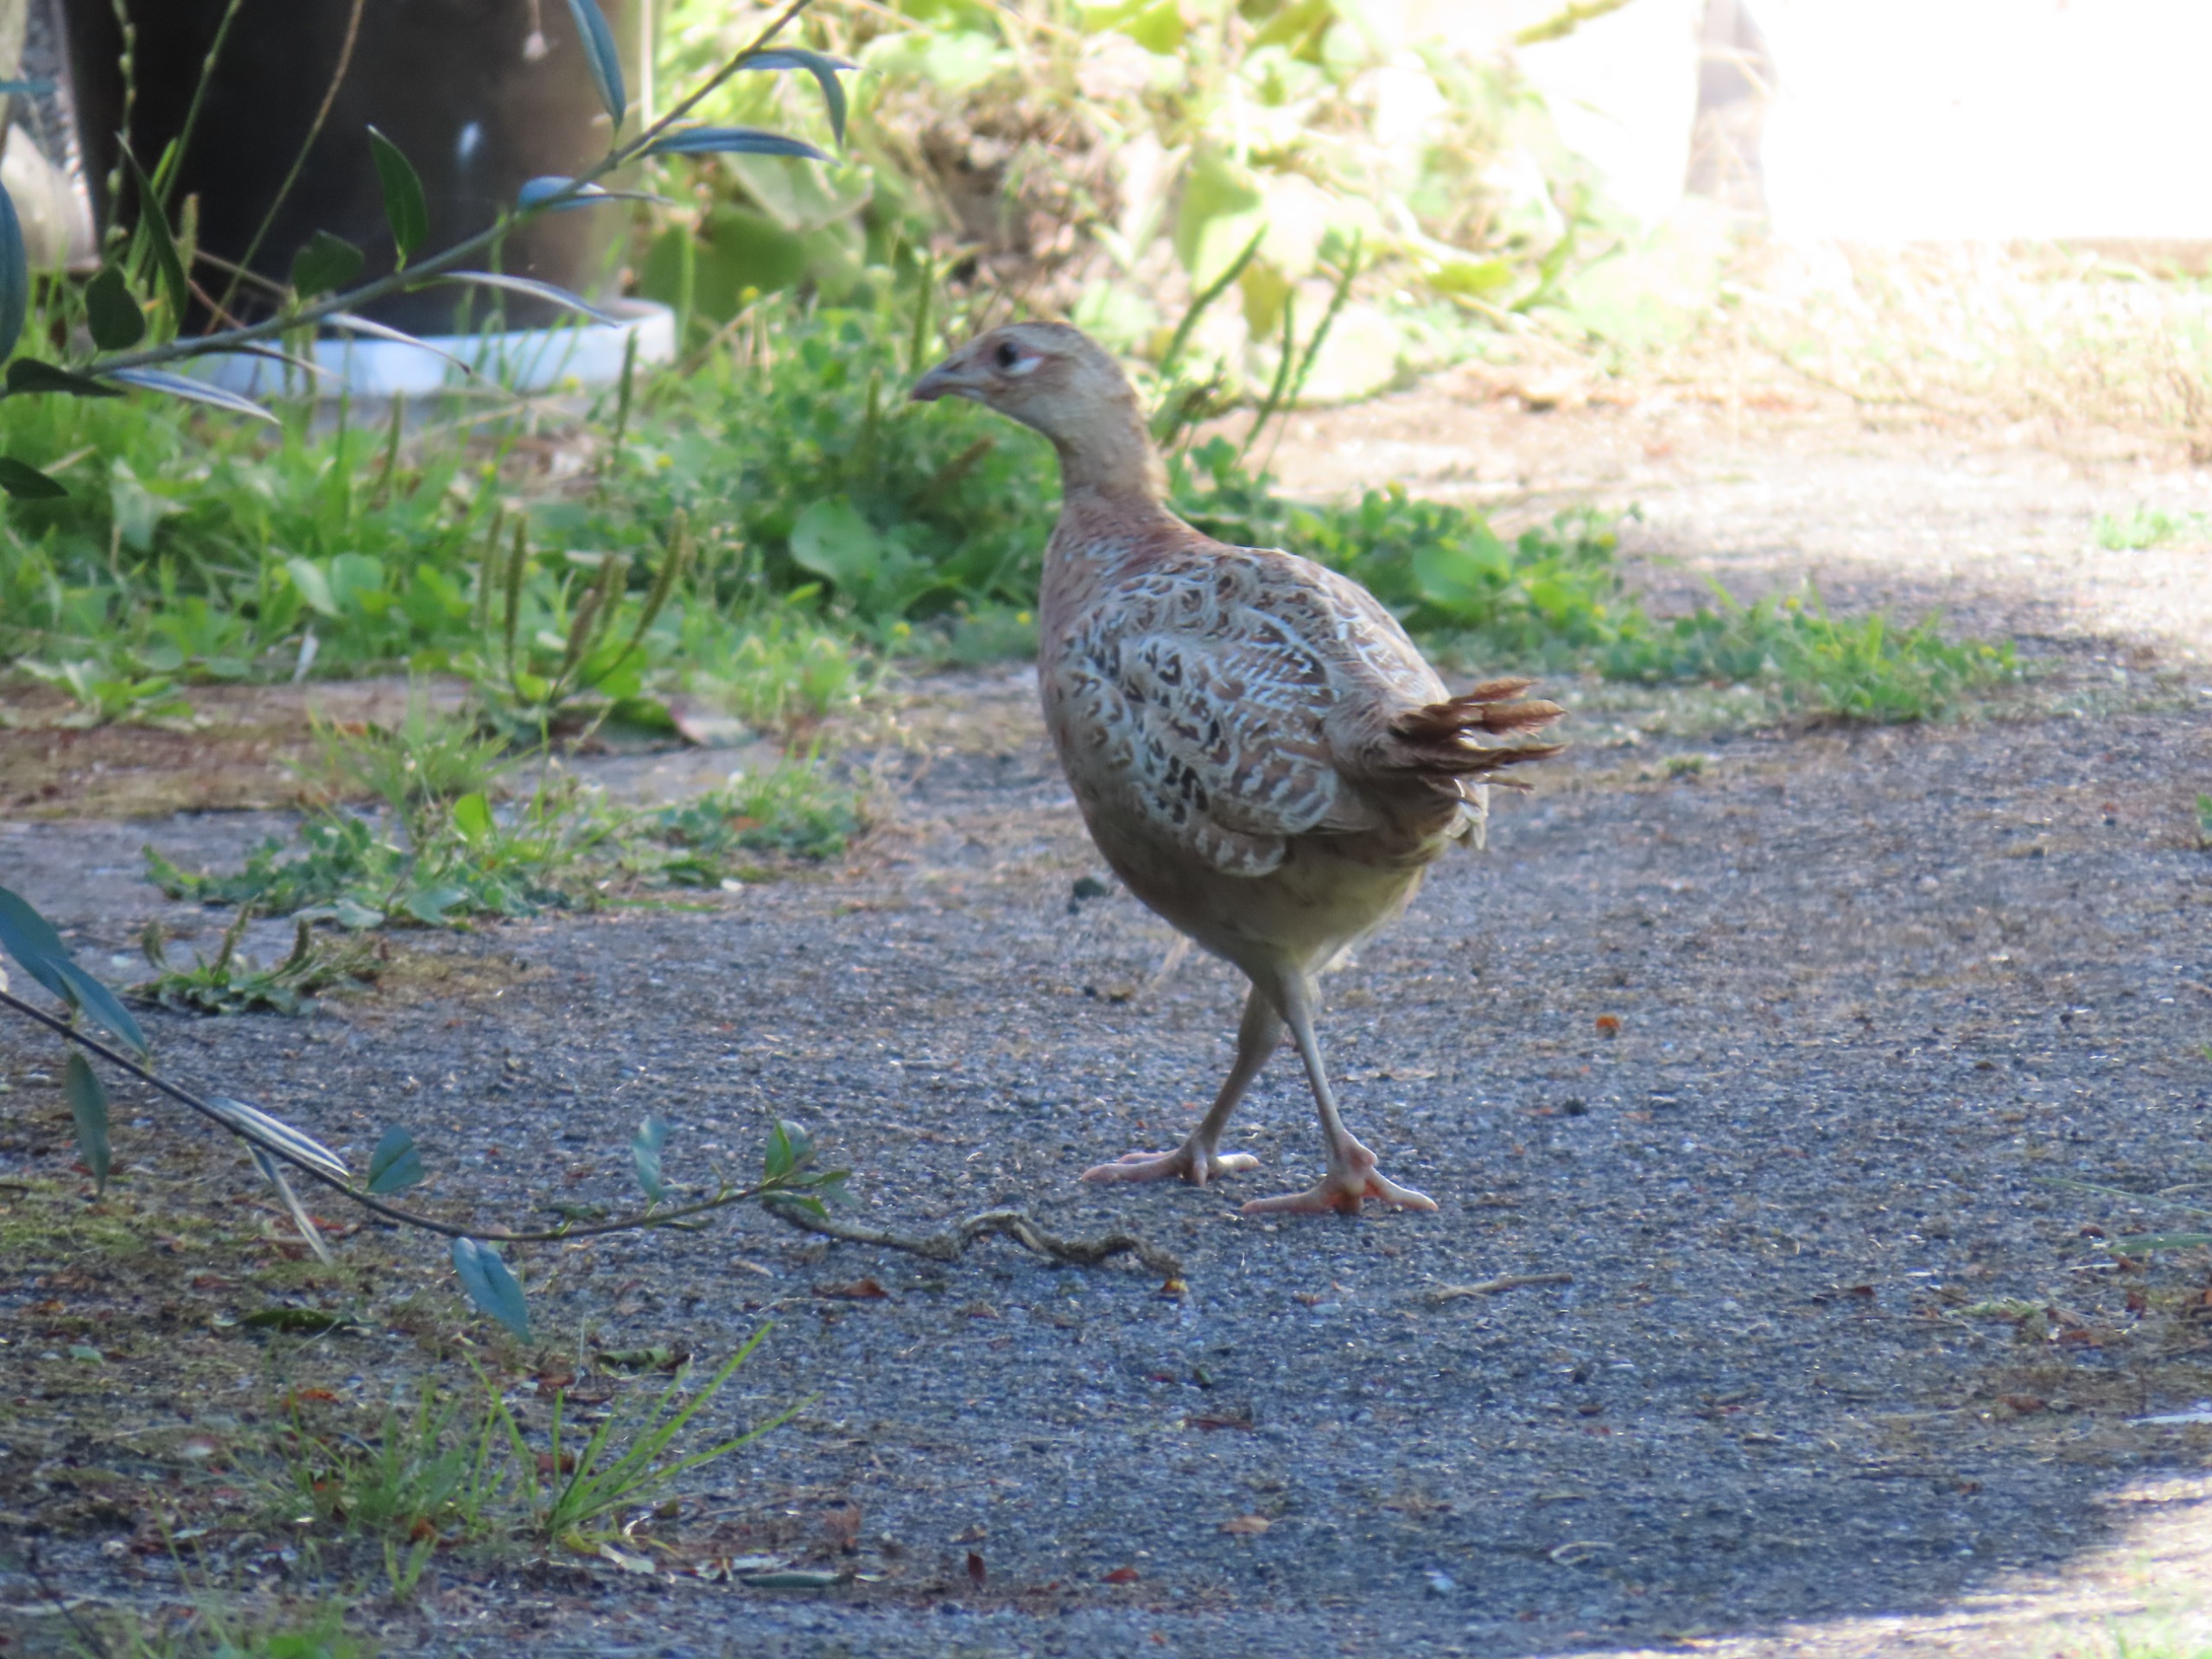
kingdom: Animalia
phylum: Chordata
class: Aves
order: Galliformes
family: Phasianidae
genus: Phasianus
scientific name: Phasianus colchicus
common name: Fasan
